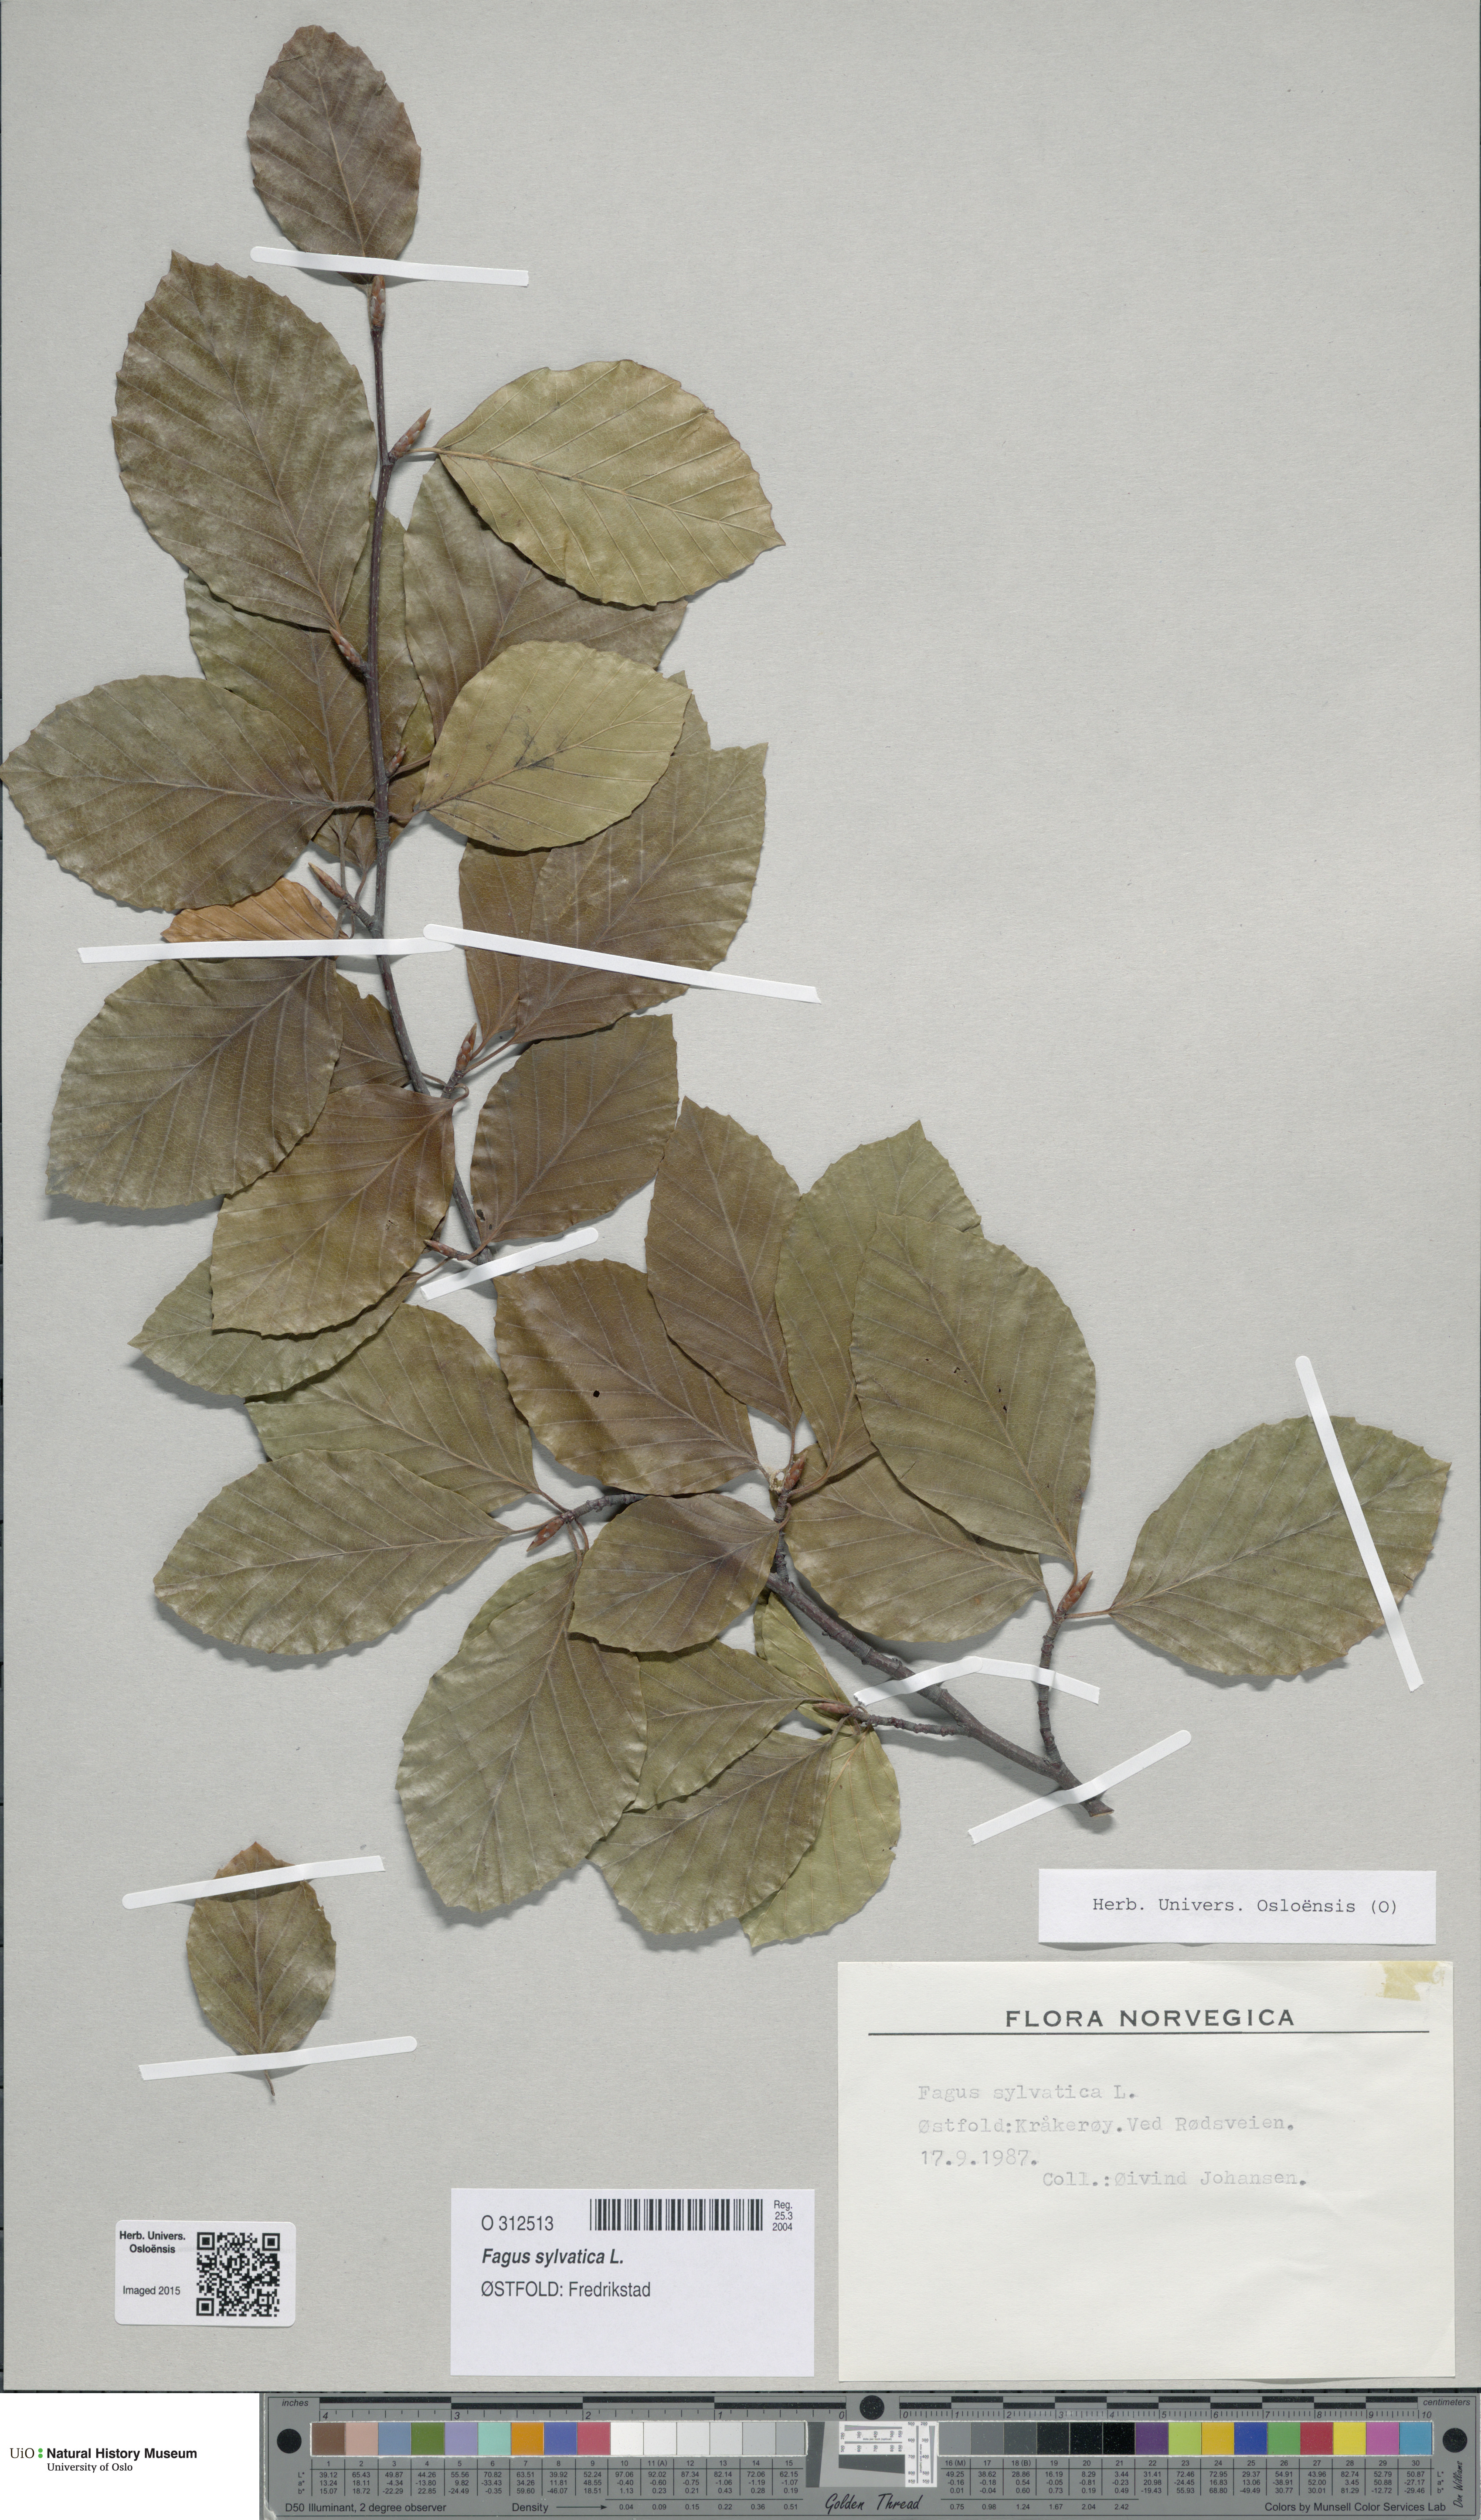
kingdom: Plantae
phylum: Tracheophyta
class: Magnoliopsida
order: Fagales
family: Fagaceae
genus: Fagus
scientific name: Fagus sylvatica
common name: Beech
